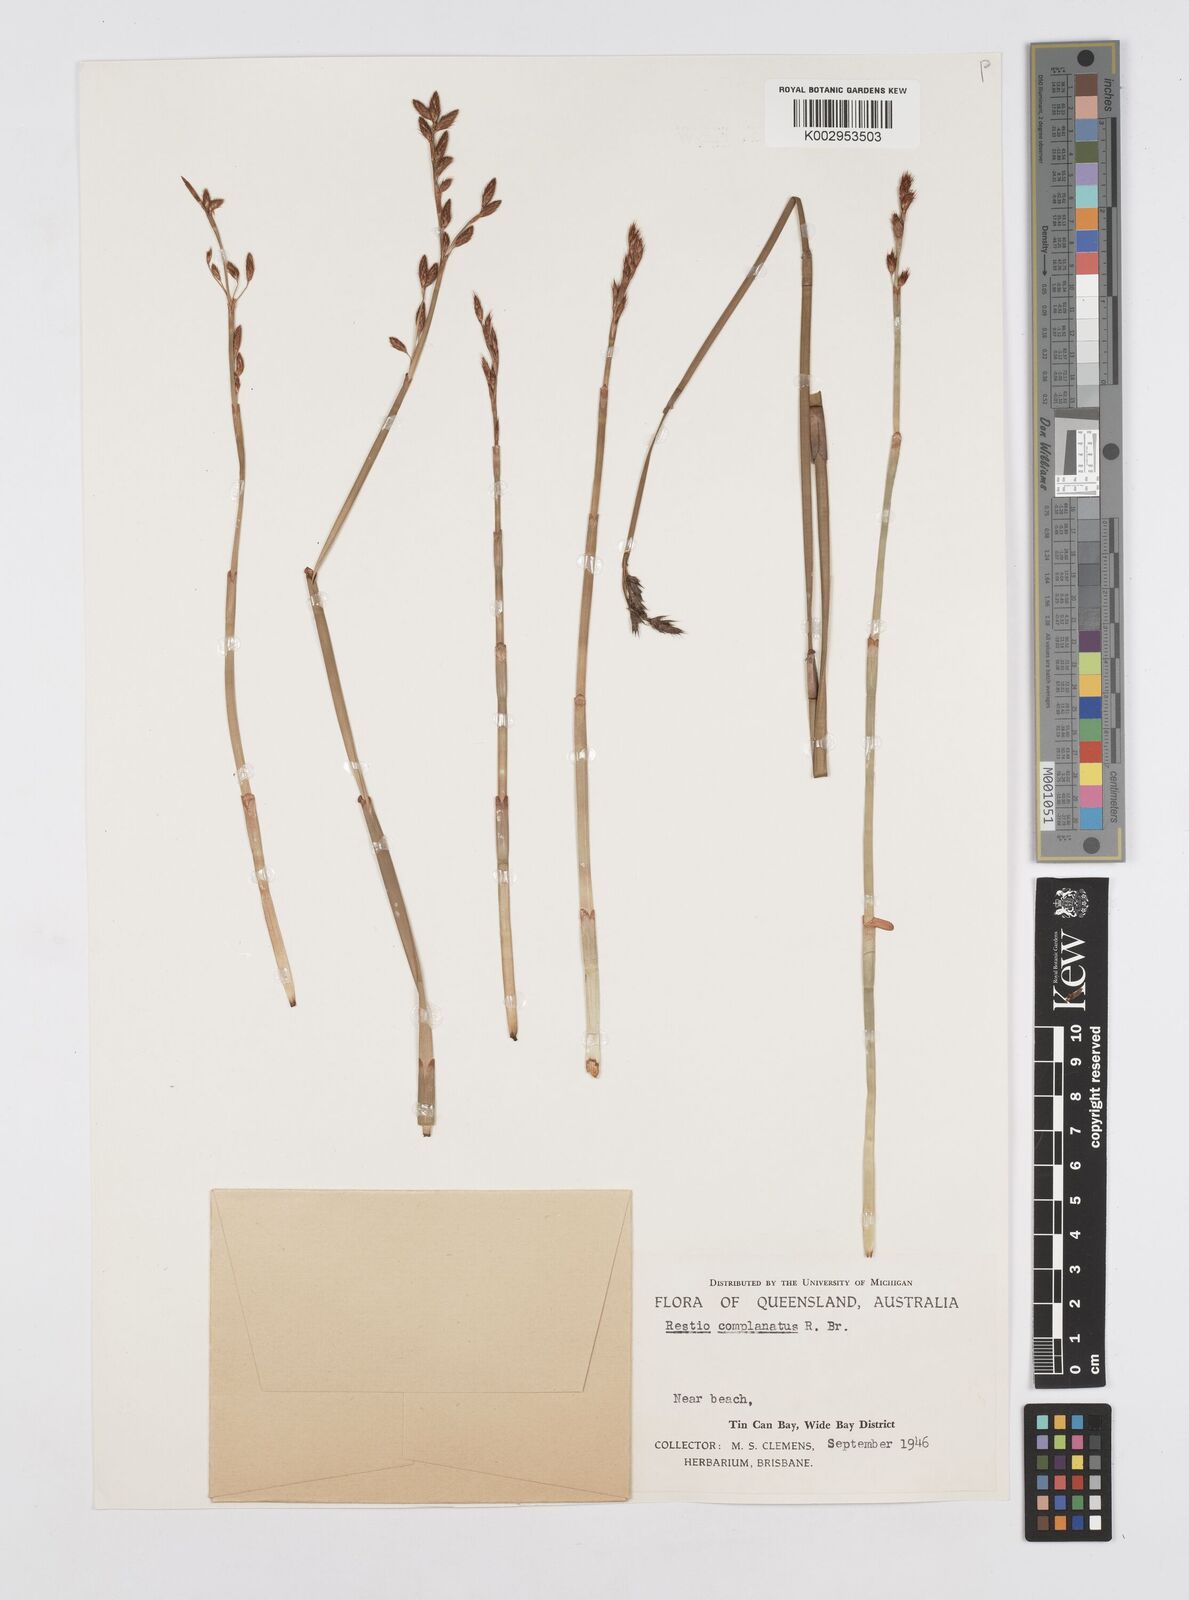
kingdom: Plantae
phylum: Tracheophyta
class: Liliopsida
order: Poales
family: Restionaceae
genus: Eurychorda
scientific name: Eurychorda complanata
